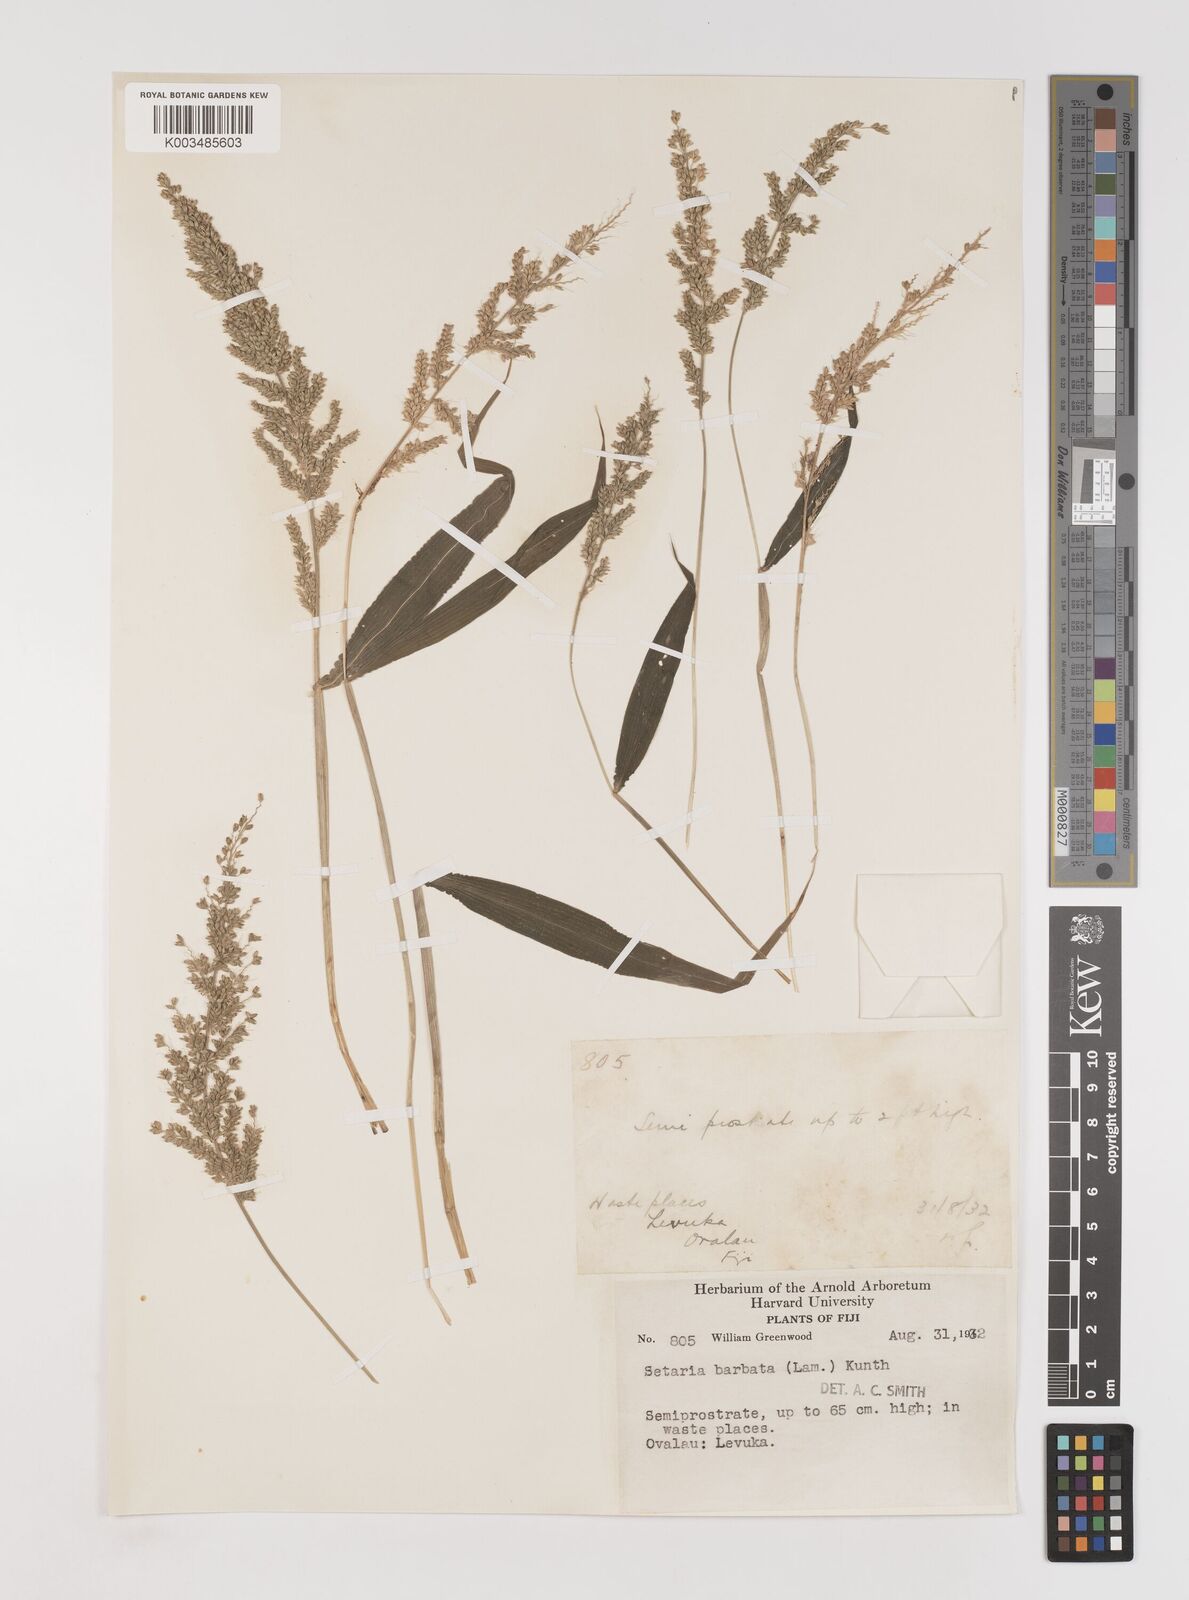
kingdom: Plantae
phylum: Tracheophyta
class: Liliopsida
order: Poales
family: Poaceae
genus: Setaria
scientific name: Setaria barbata
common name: East indian bristlegrass
